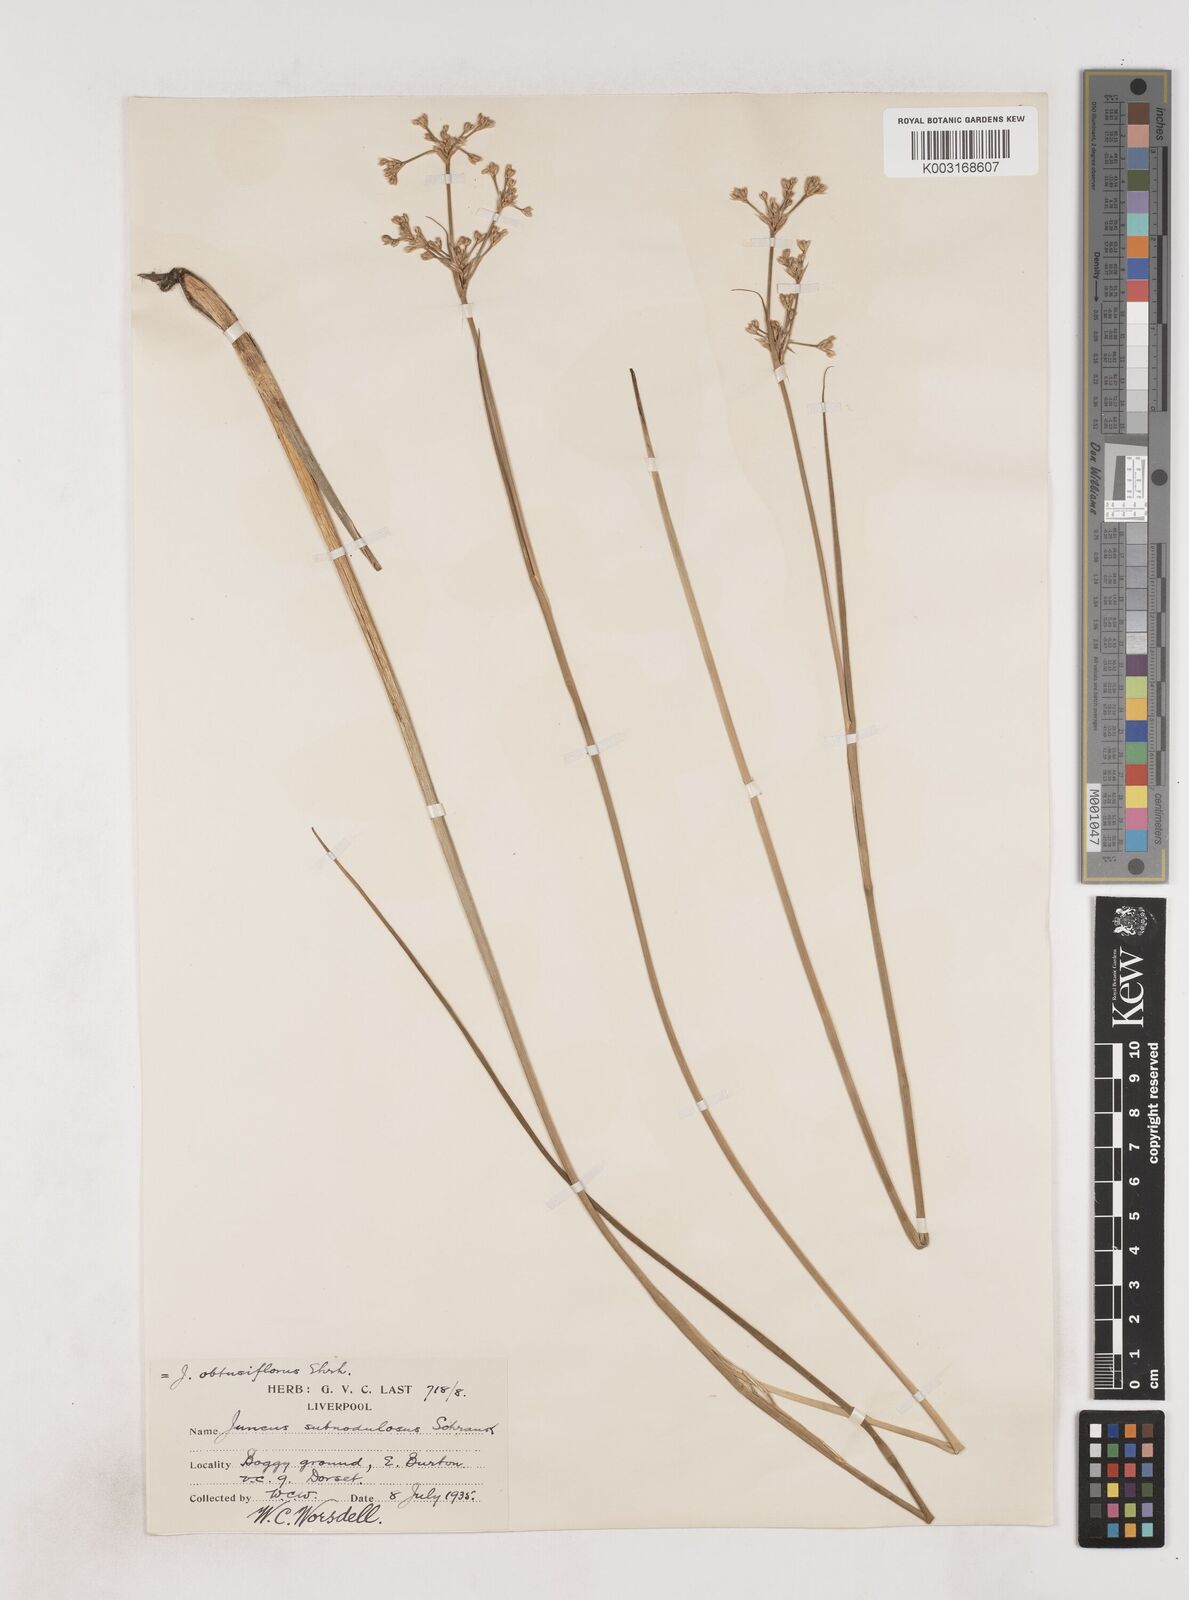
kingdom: Plantae
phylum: Tracheophyta
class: Liliopsida
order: Poales
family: Juncaceae
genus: Juncus
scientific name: Juncus subnodulosus
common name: Blunt-flowered rush
